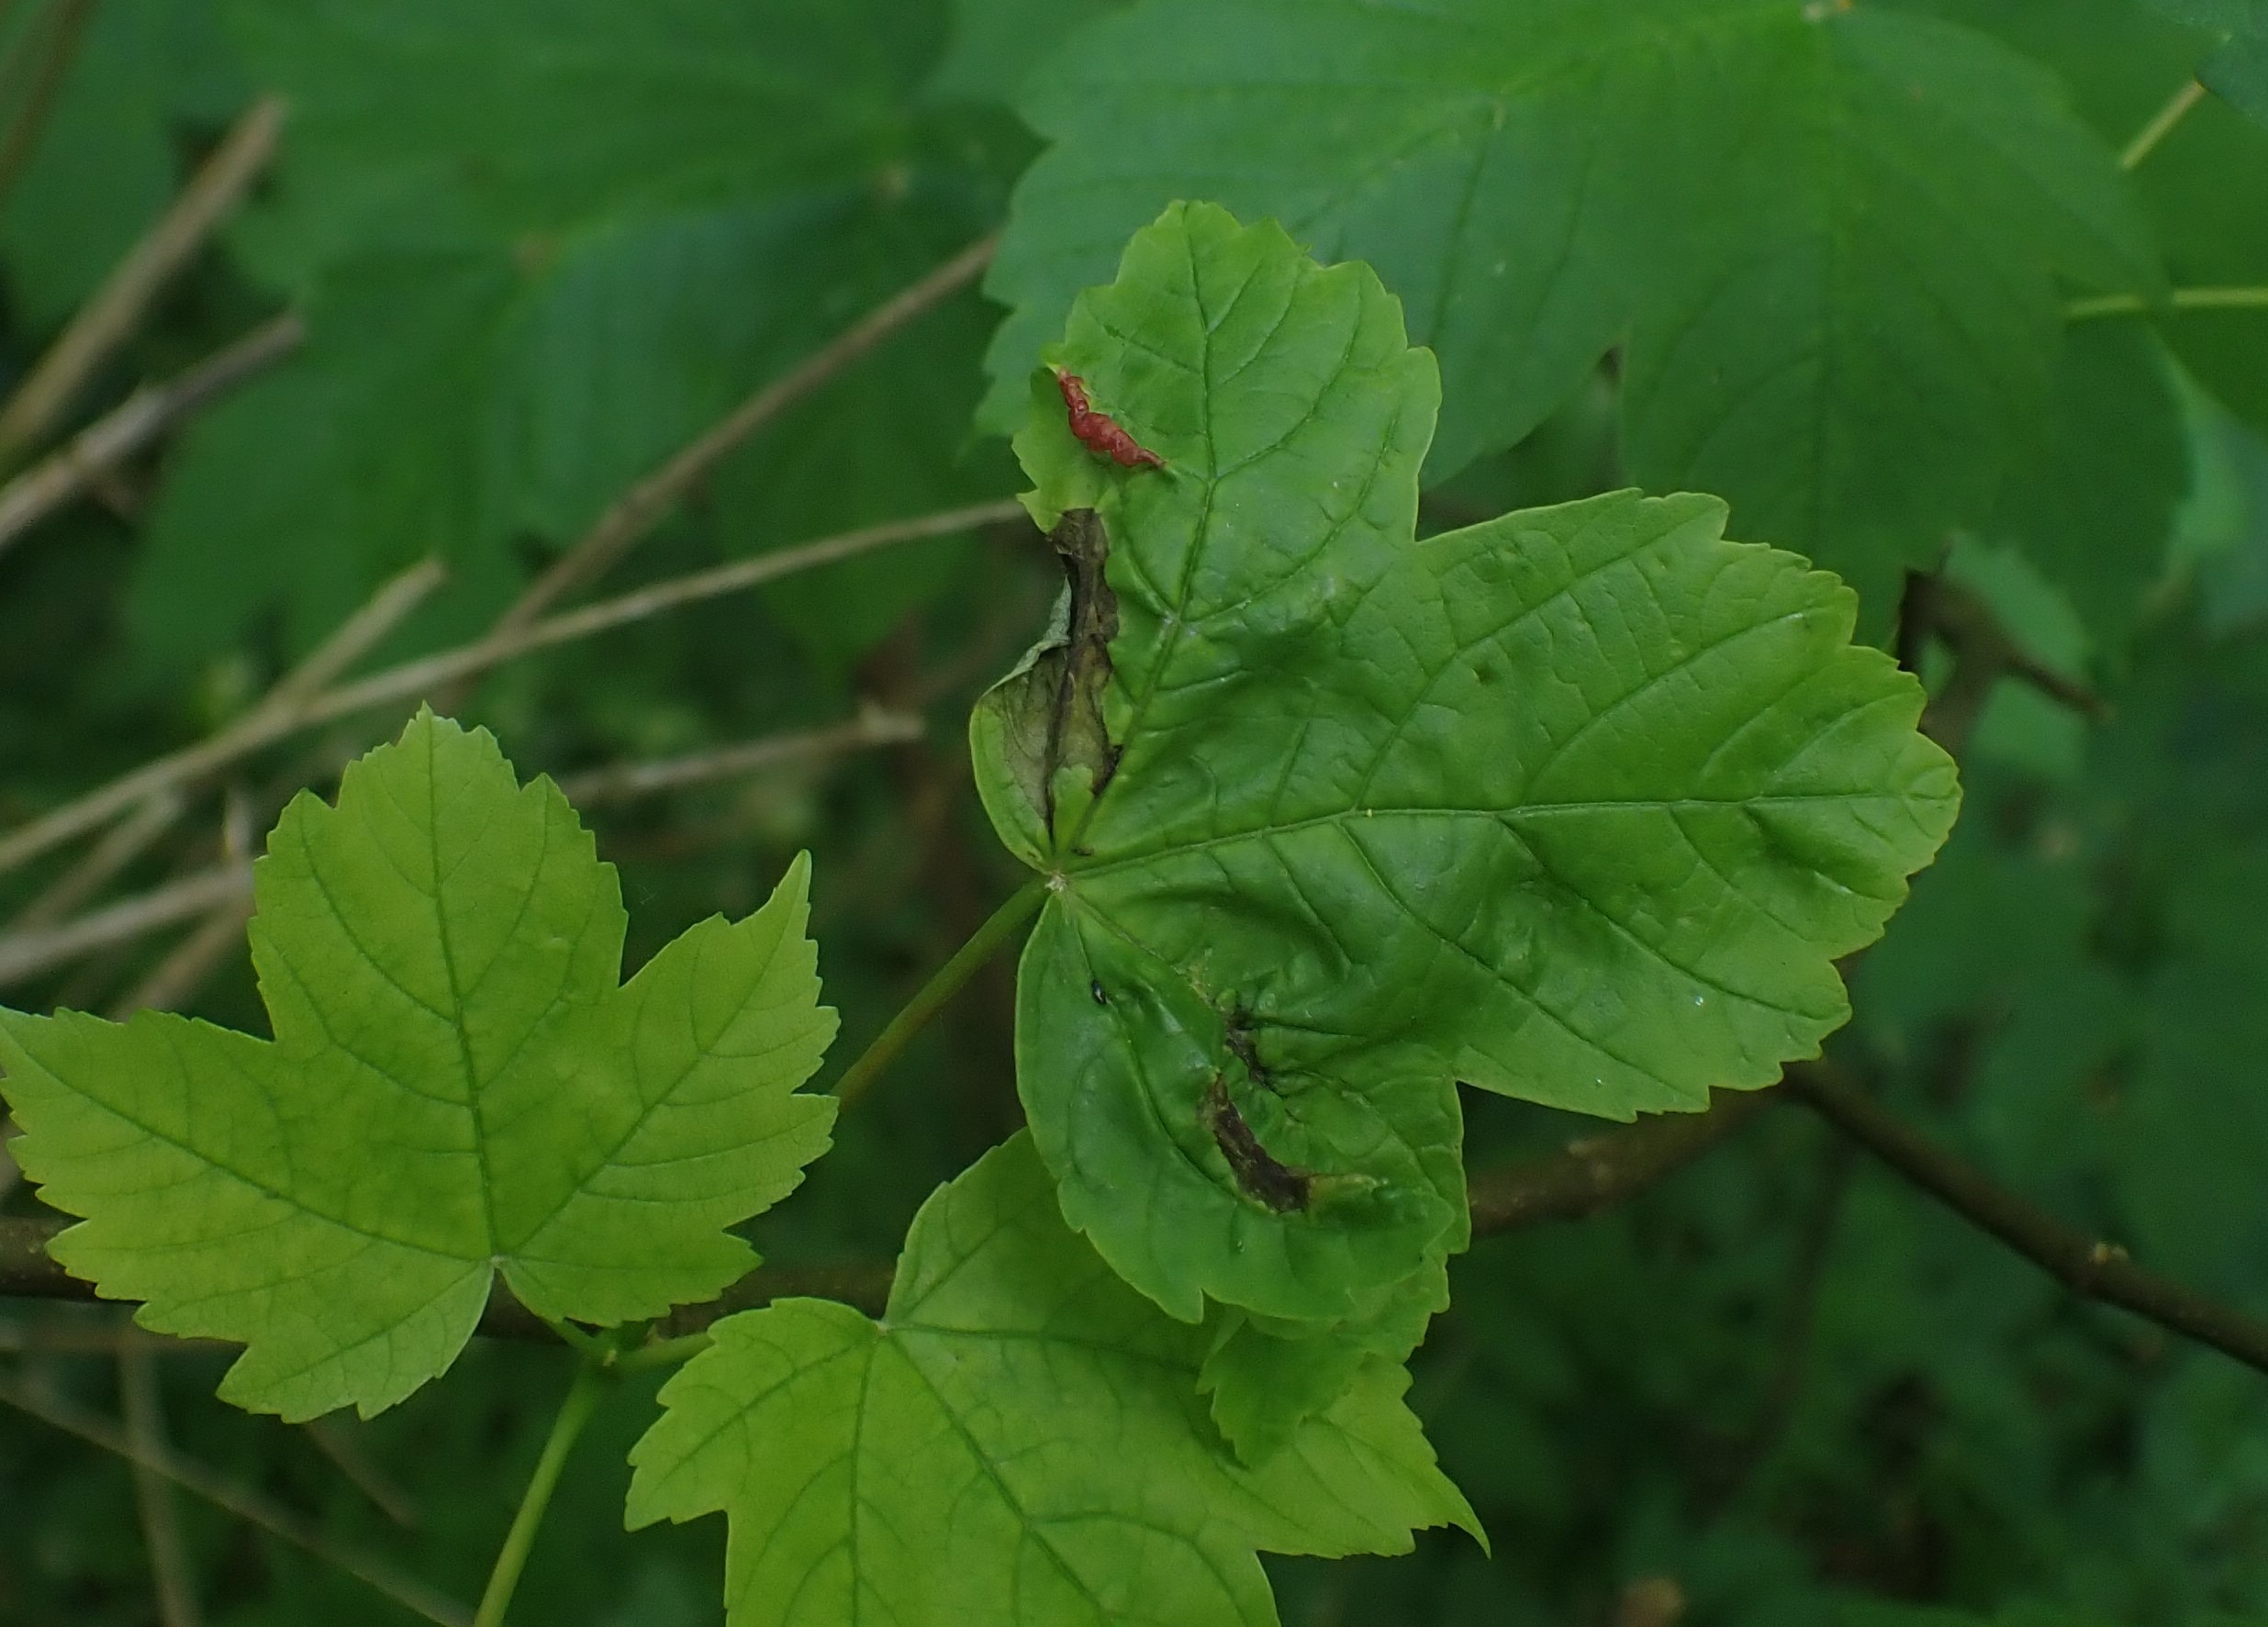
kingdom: Animalia
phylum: Arthropoda
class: Insecta
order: Diptera
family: Cecidomyiidae
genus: Contarinia
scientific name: Contarinia acerplicans
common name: Ahornvulstgalmyg
